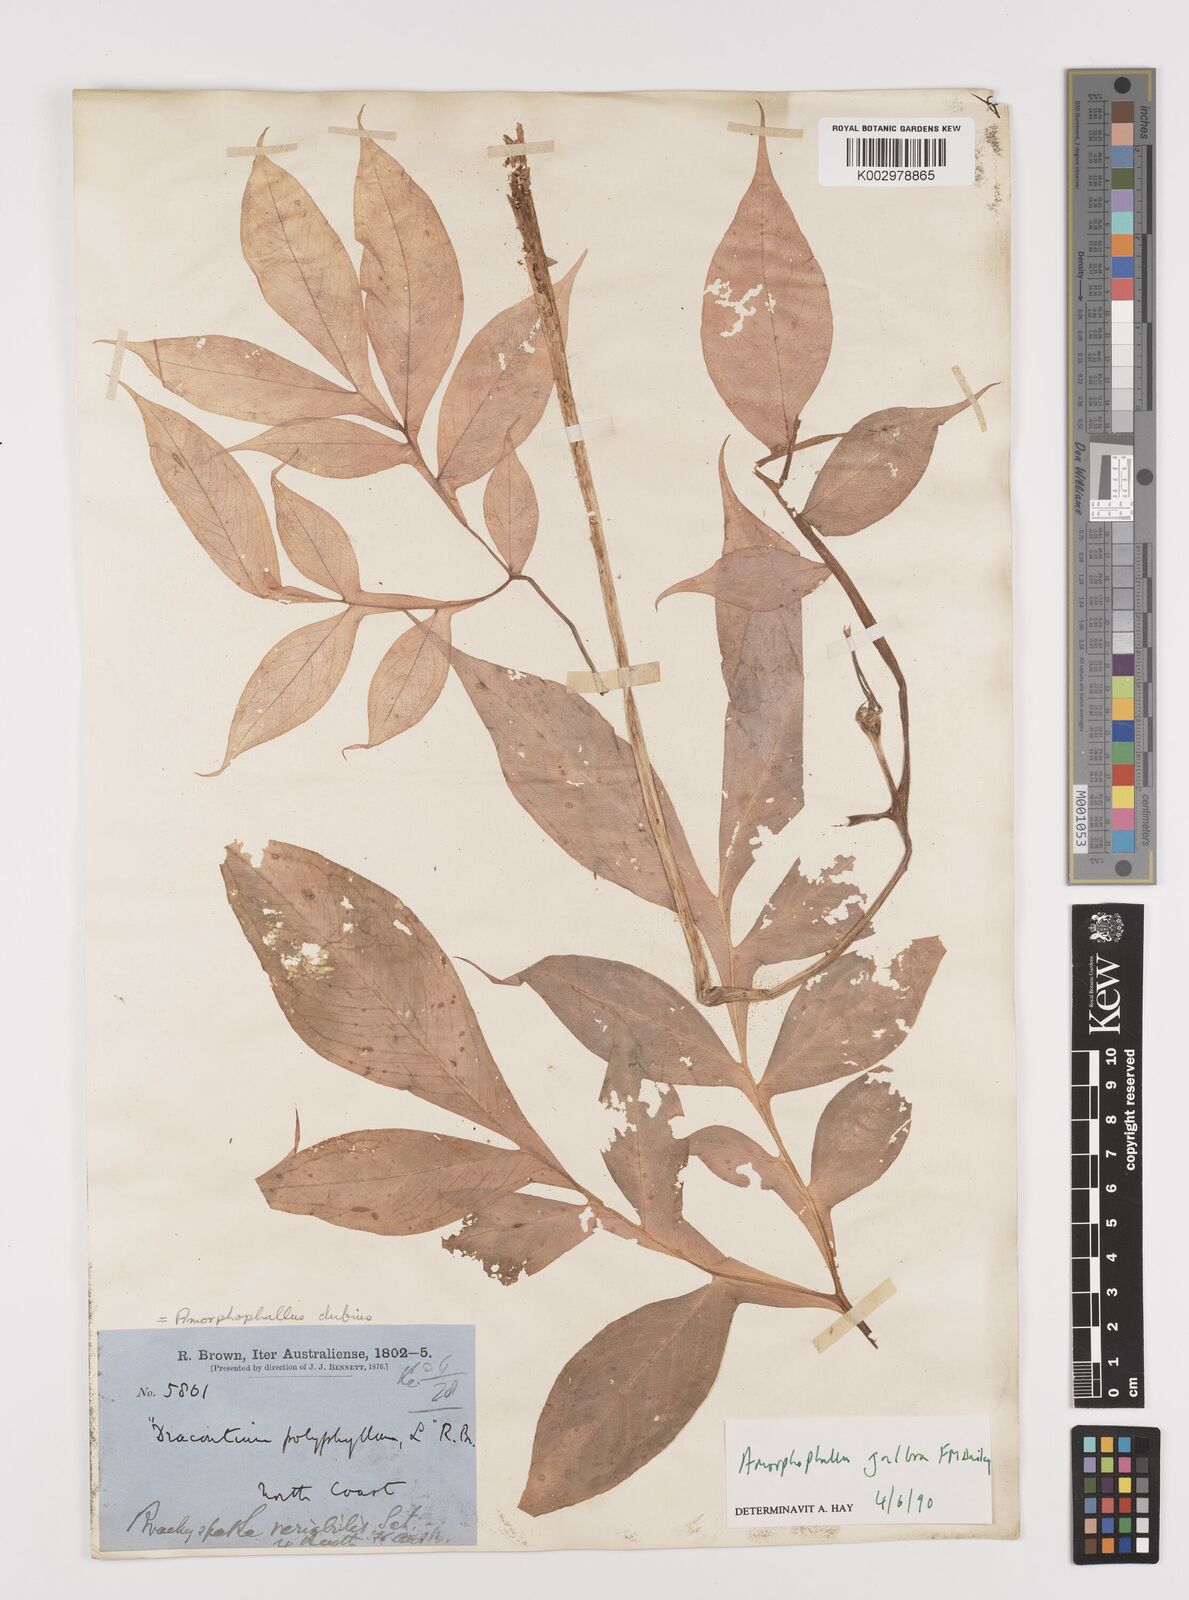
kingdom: Plantae
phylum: Tracheophyta
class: Liliopsida
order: Alismatales
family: Araceae
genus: Amorphophallus
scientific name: Amorphophallus galbra
